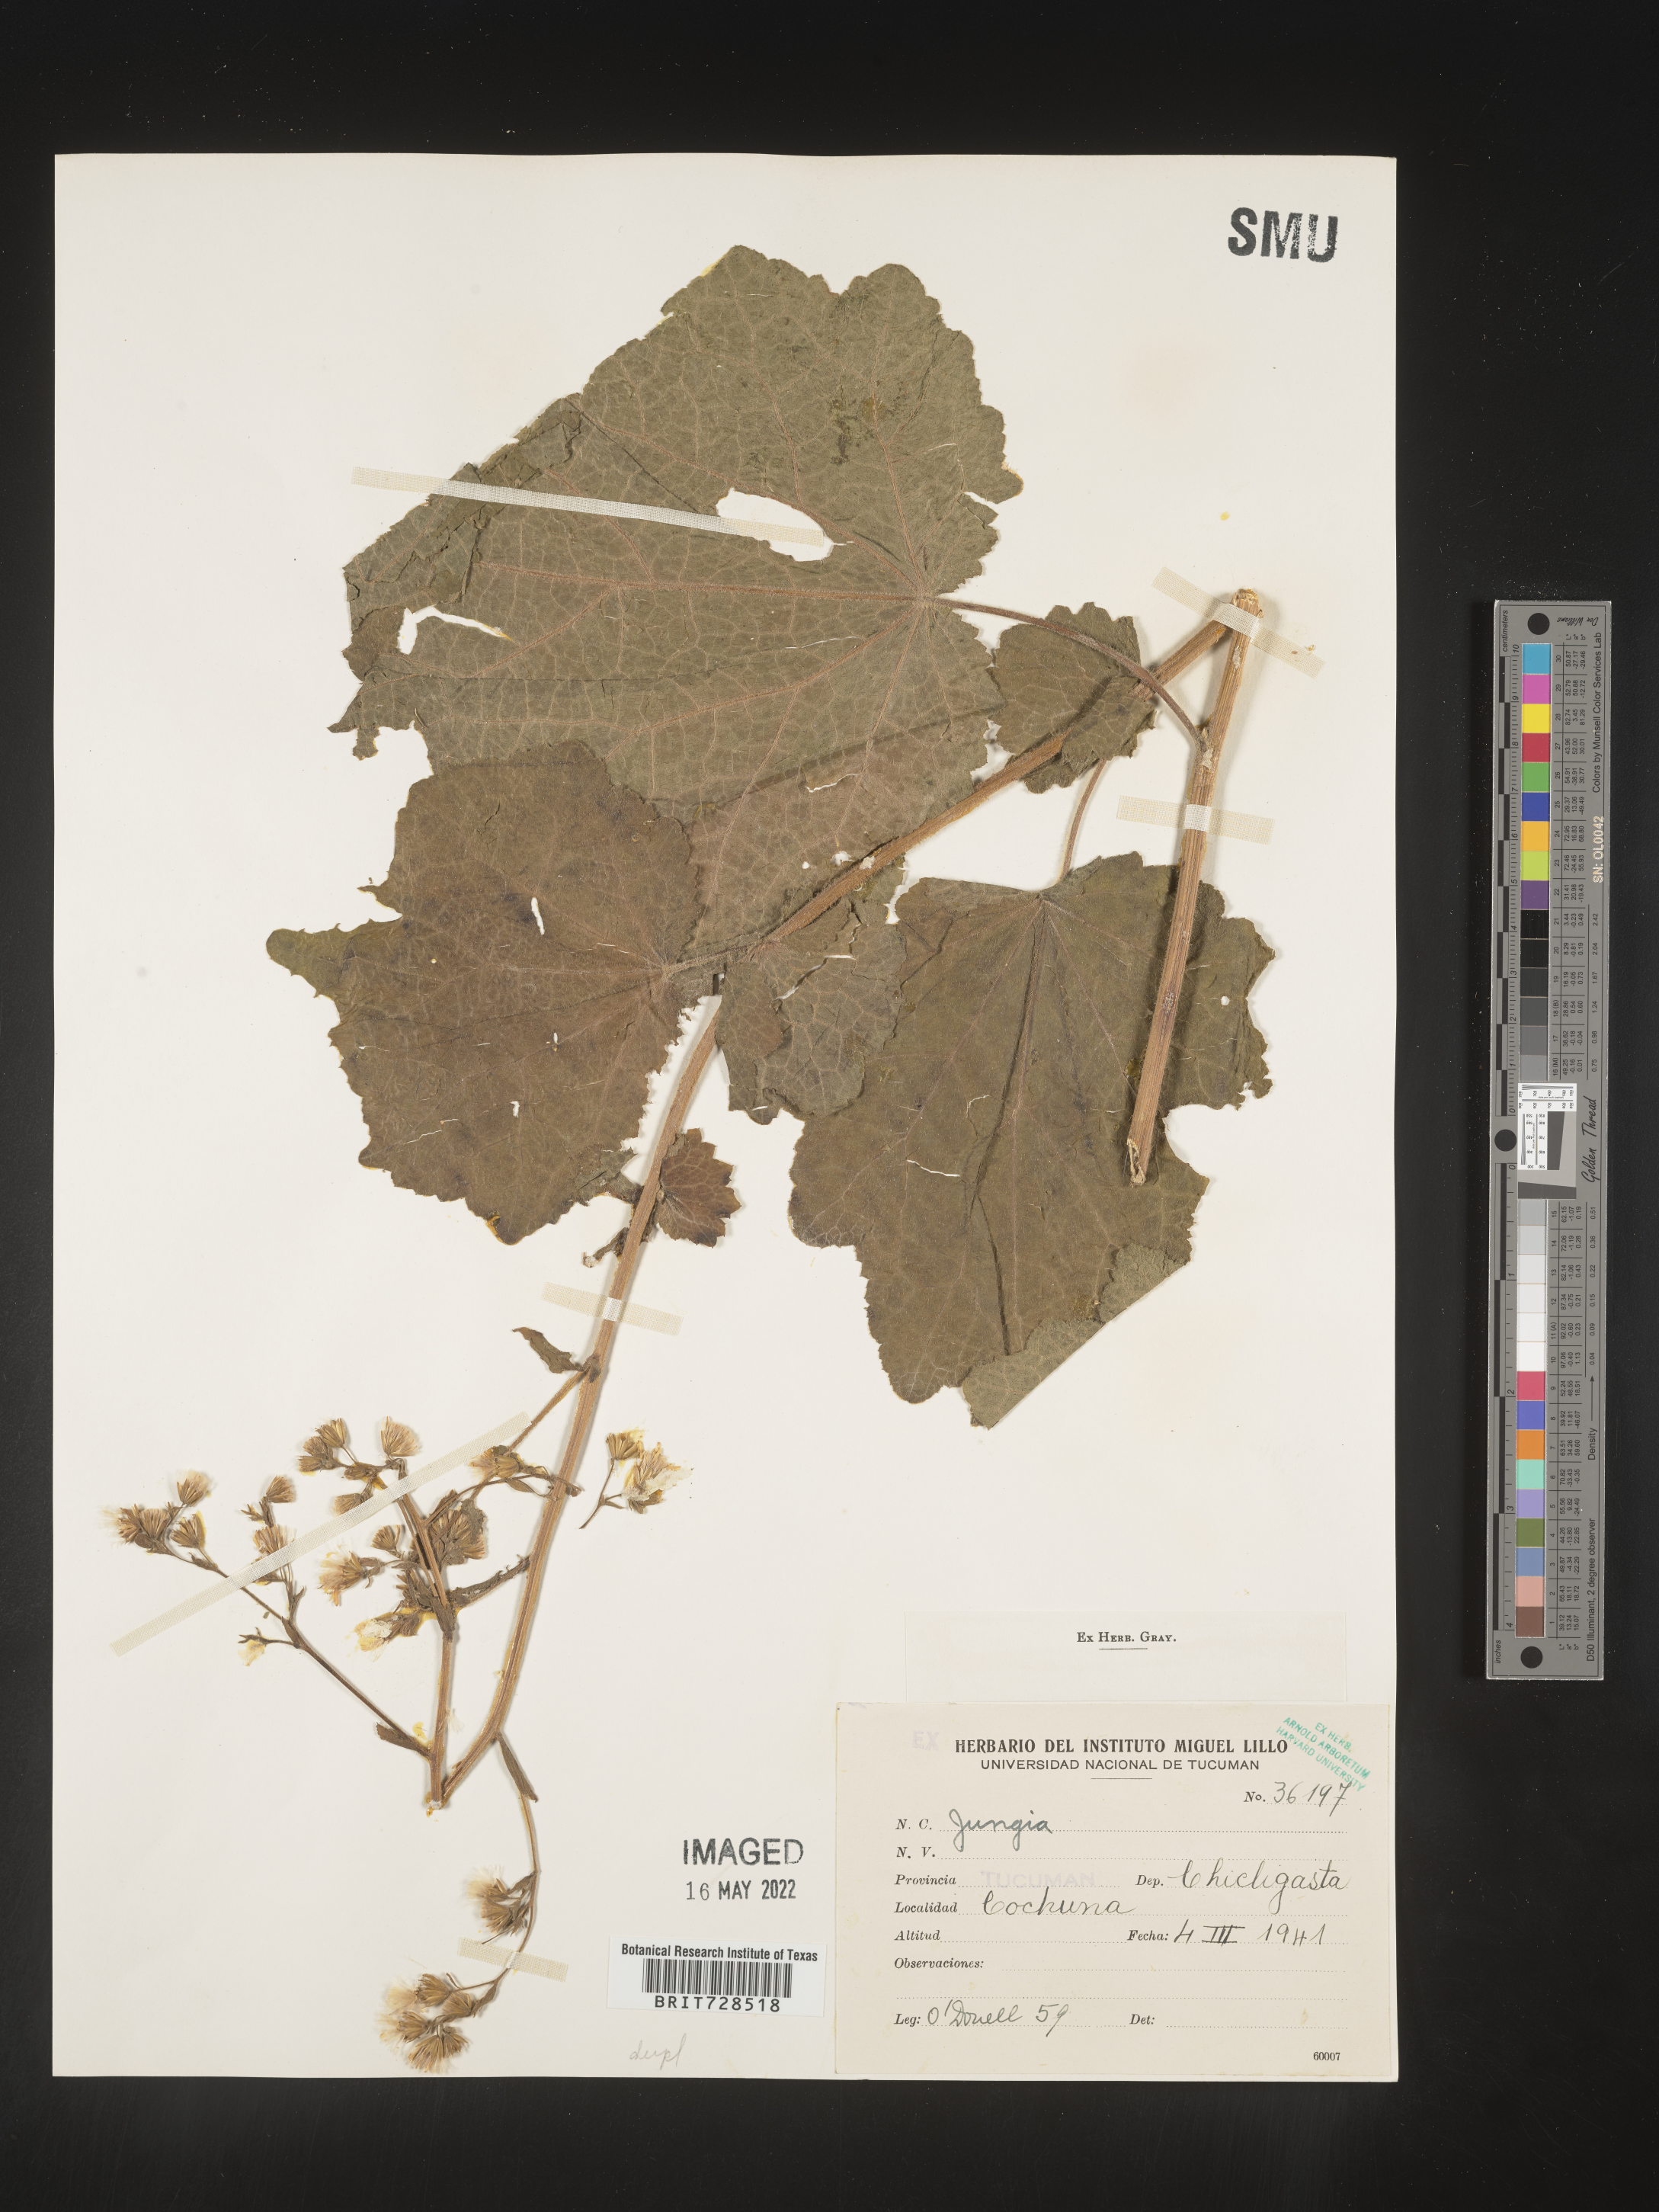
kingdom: Plantae
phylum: Tracheophyta
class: Magnoliopsida
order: Asterales
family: Asteraceae
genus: Jungia
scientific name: Jungia
